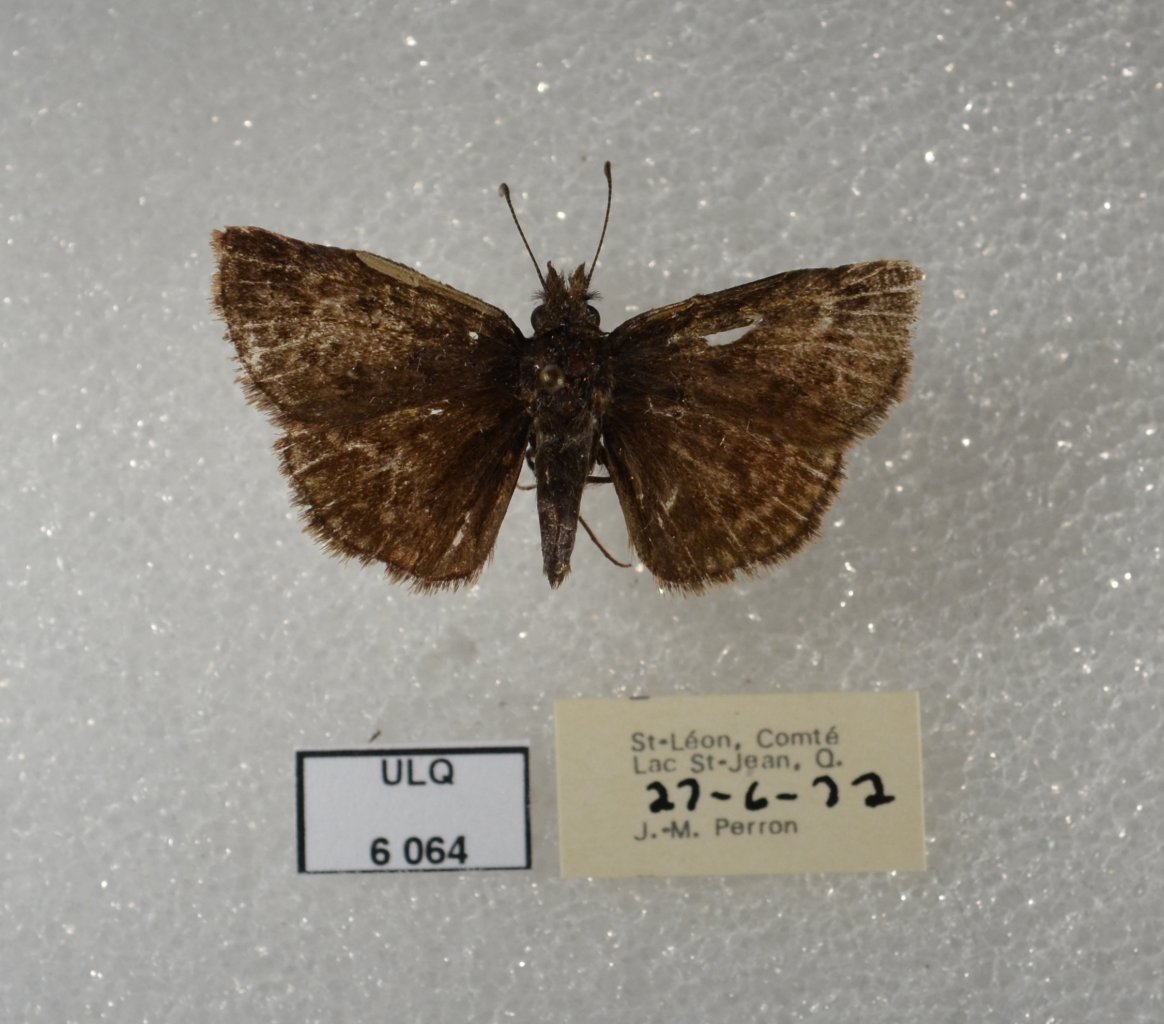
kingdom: Animalia
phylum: Arthropoda
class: Insecta
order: Lepidoptera
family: Hesperiidae
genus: Erynnis
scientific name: Erynnis icelus
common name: Dreamy Duskywing
